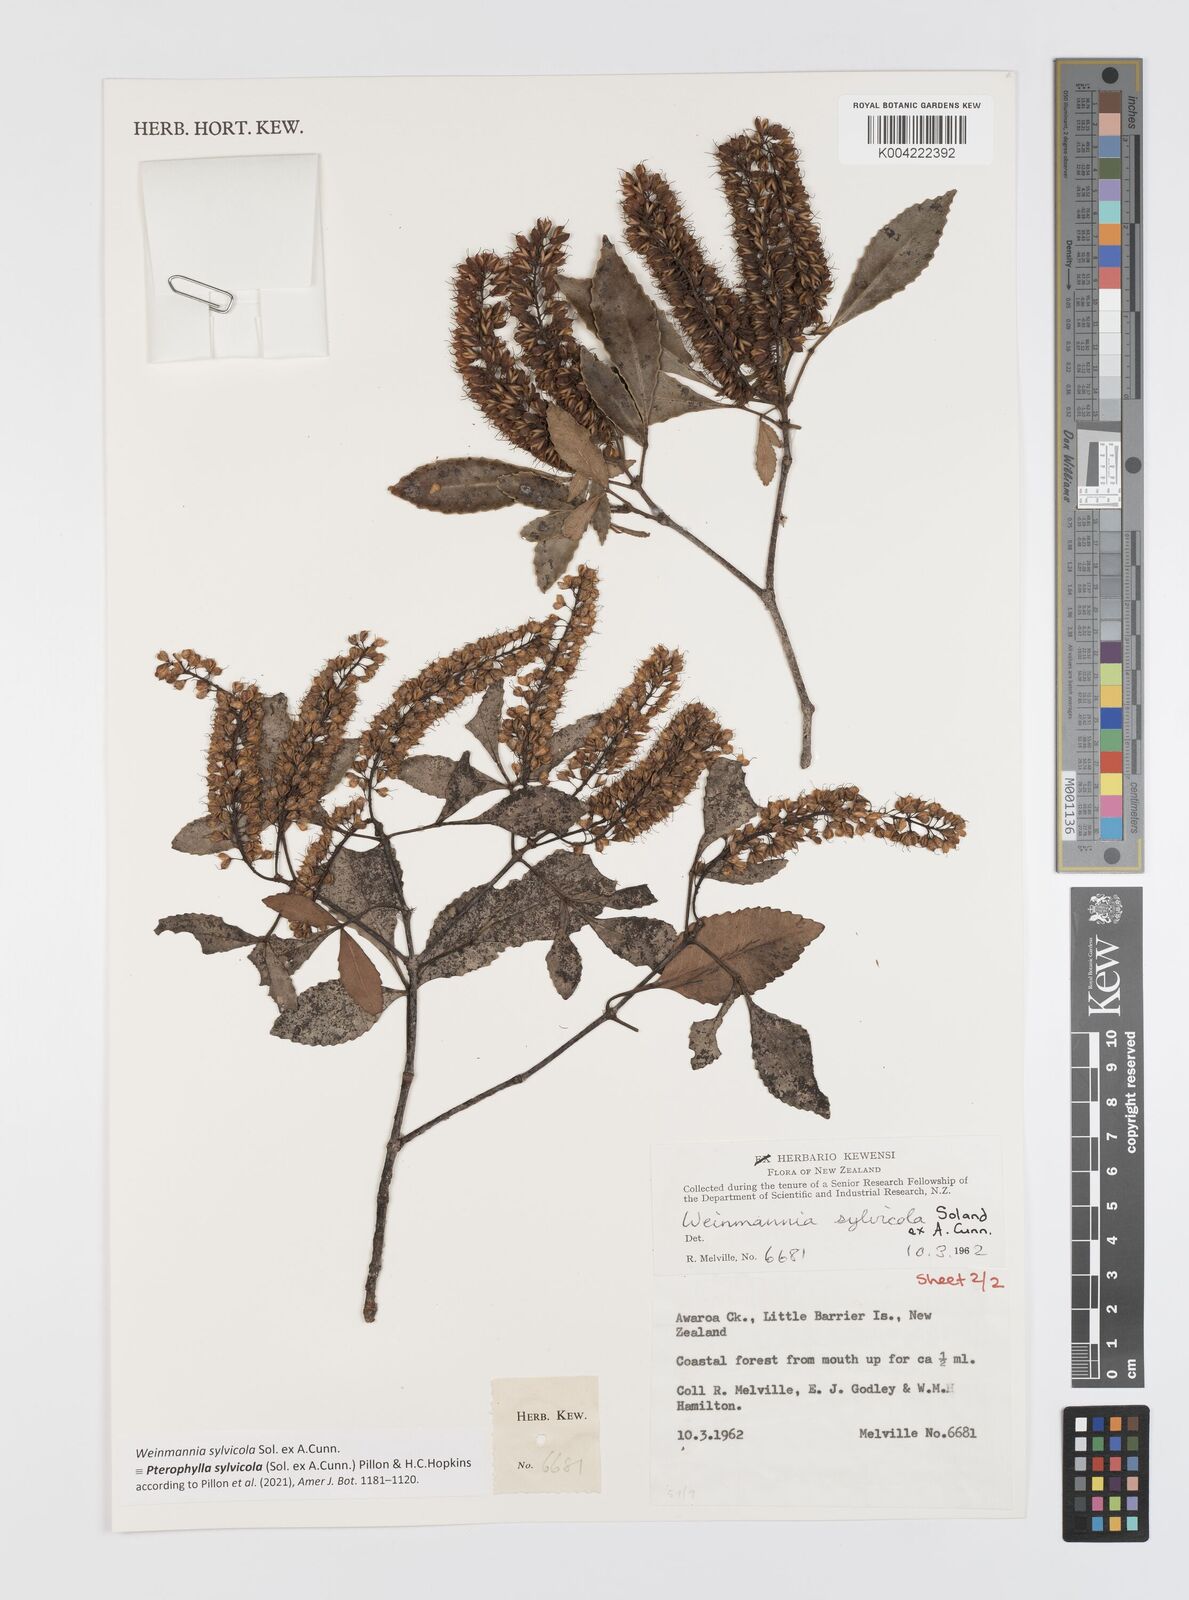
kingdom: Plantae
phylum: Tracheophyta
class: Magnoliopsida
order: Oxalidales
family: Cunoniaceae
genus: Pterophylla
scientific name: Pterophylla sylvicola
